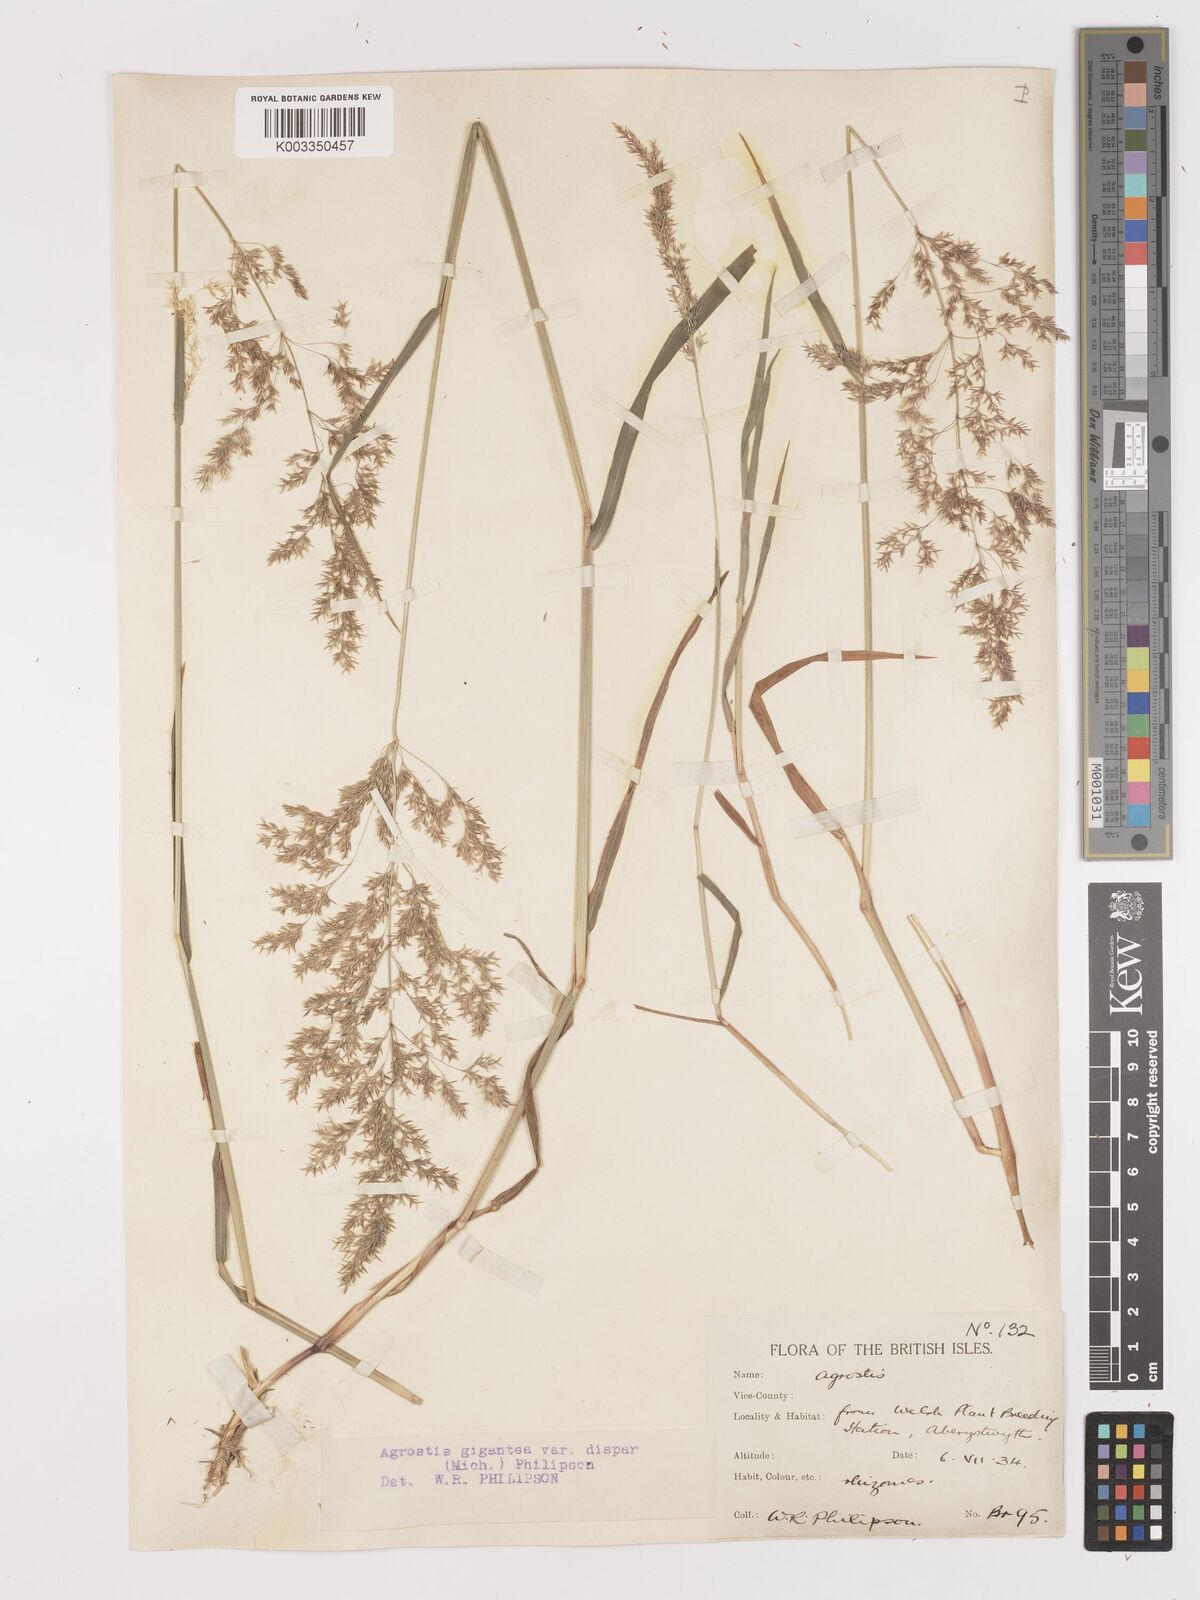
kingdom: Plantae
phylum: Tracheophyta
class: Liliopsida
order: Poales
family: Poaceae
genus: Agrostis
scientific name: Agrostis gigantea
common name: Black bent
